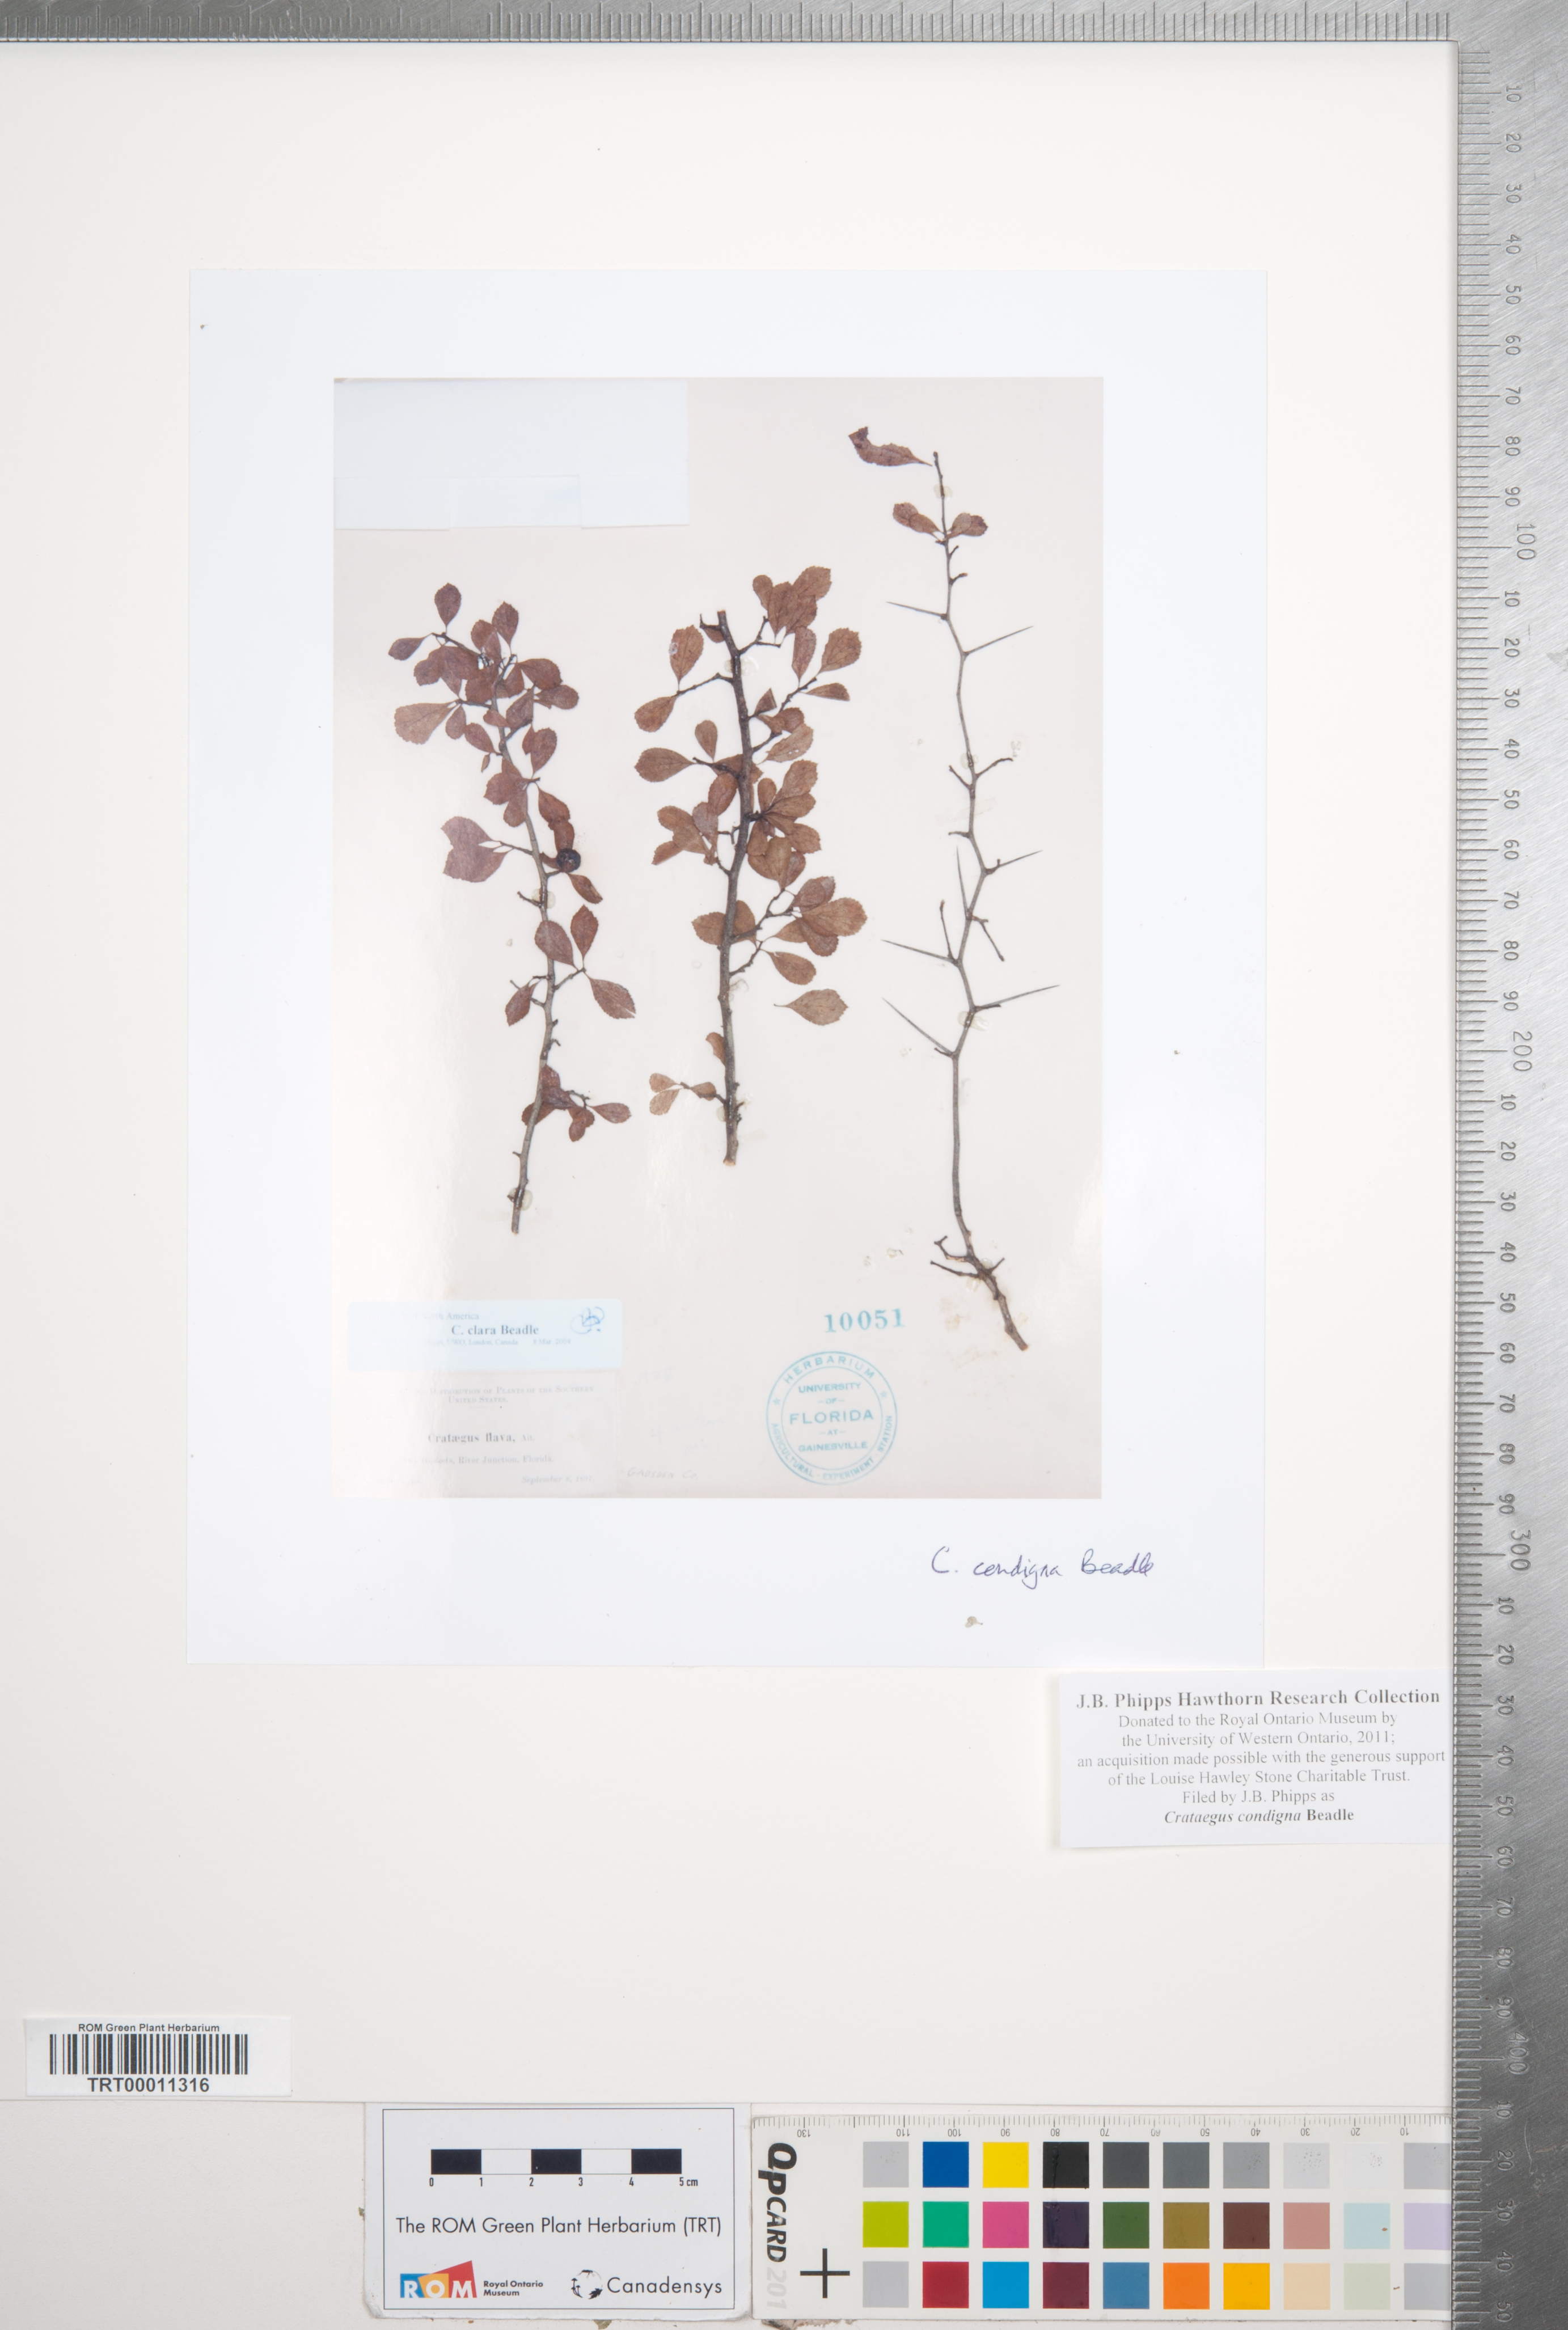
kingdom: Plantae
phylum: Tracheophyta
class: Magnoliopsida
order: Rosales
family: Rosaceae
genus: Crataegus
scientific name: Crataegus condigna
